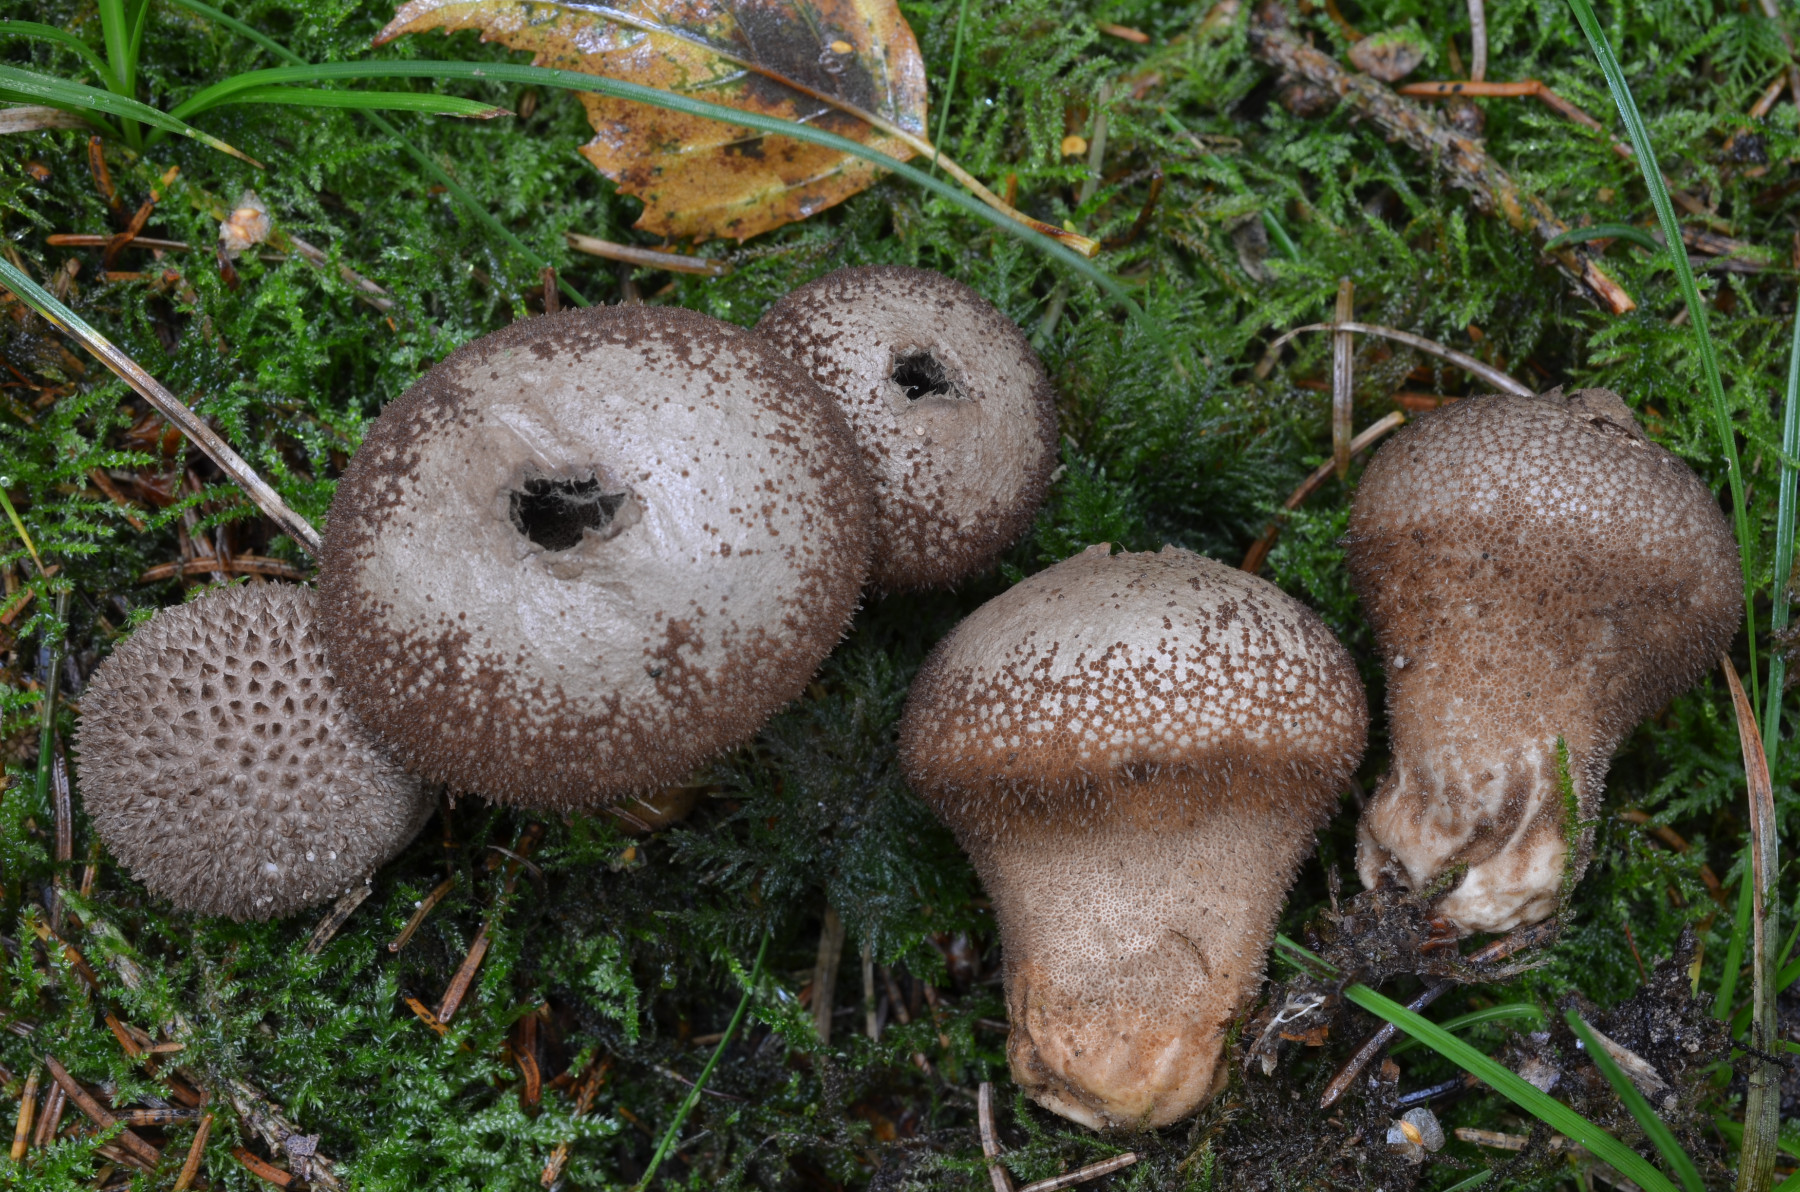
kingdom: Fungi
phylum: Basidiomycota
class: Agaricomycetes
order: Agaricales
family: Lycoperdaceae
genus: Lycoperdon
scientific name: Lycoperdon nigrescens
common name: sortagtig støvbold
